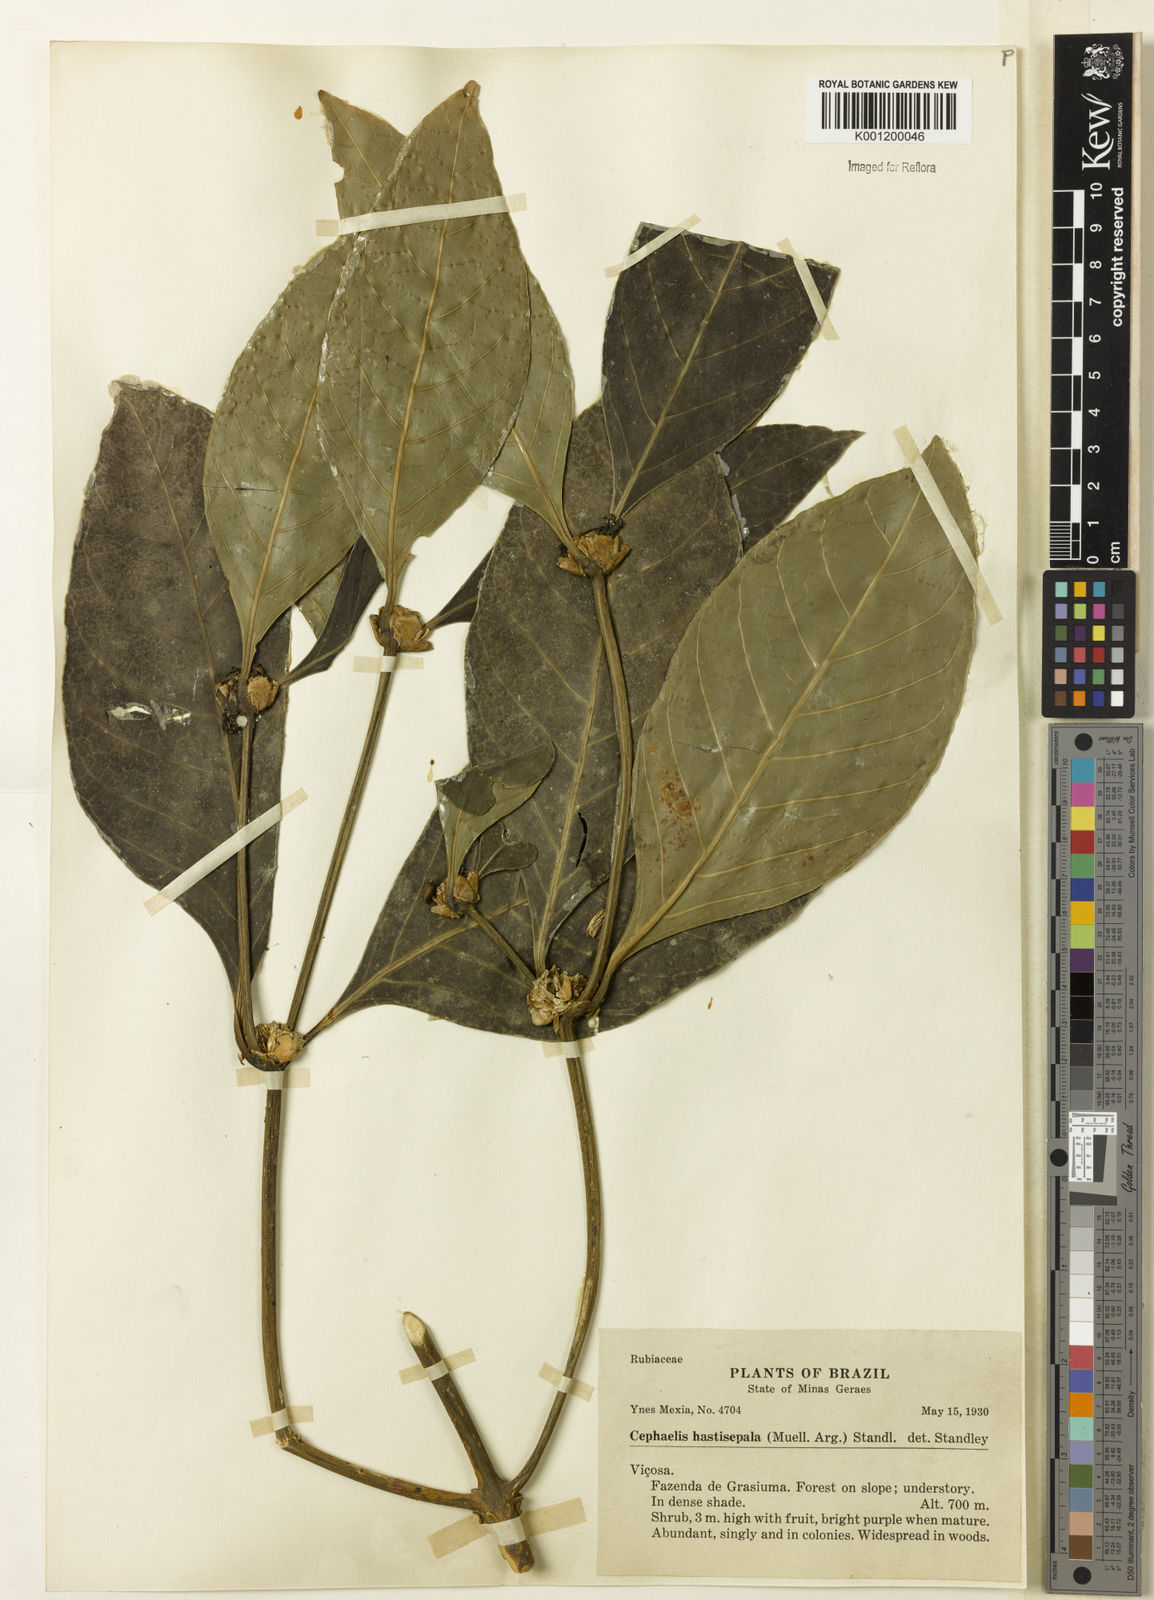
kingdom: Plantae
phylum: Tracheophyta
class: Magnoliopsida
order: Gentianales
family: Rubiaceae
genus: Psychotria
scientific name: Psychotria
